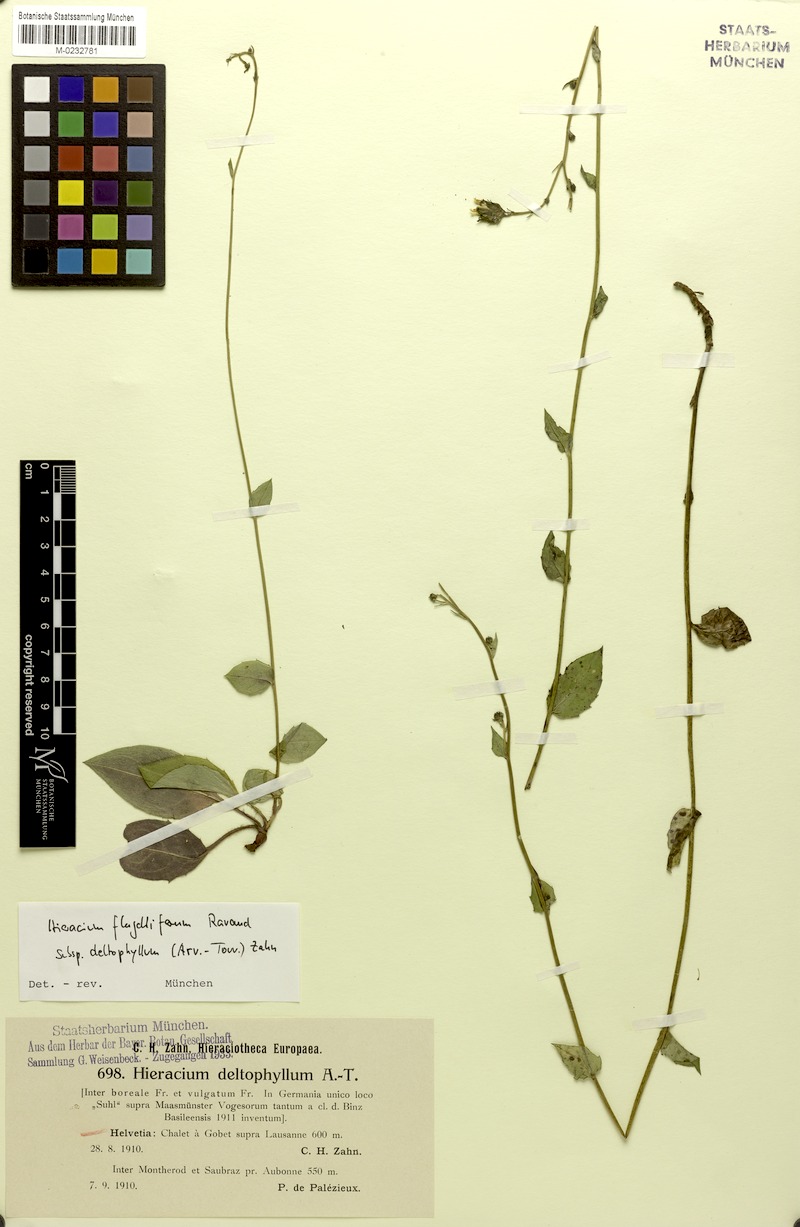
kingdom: Plantae
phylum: Tracheophyta
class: Magnoliopsida
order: Asterales
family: Asteraceae
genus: Hieracium
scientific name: Hieracium flagelliferum
